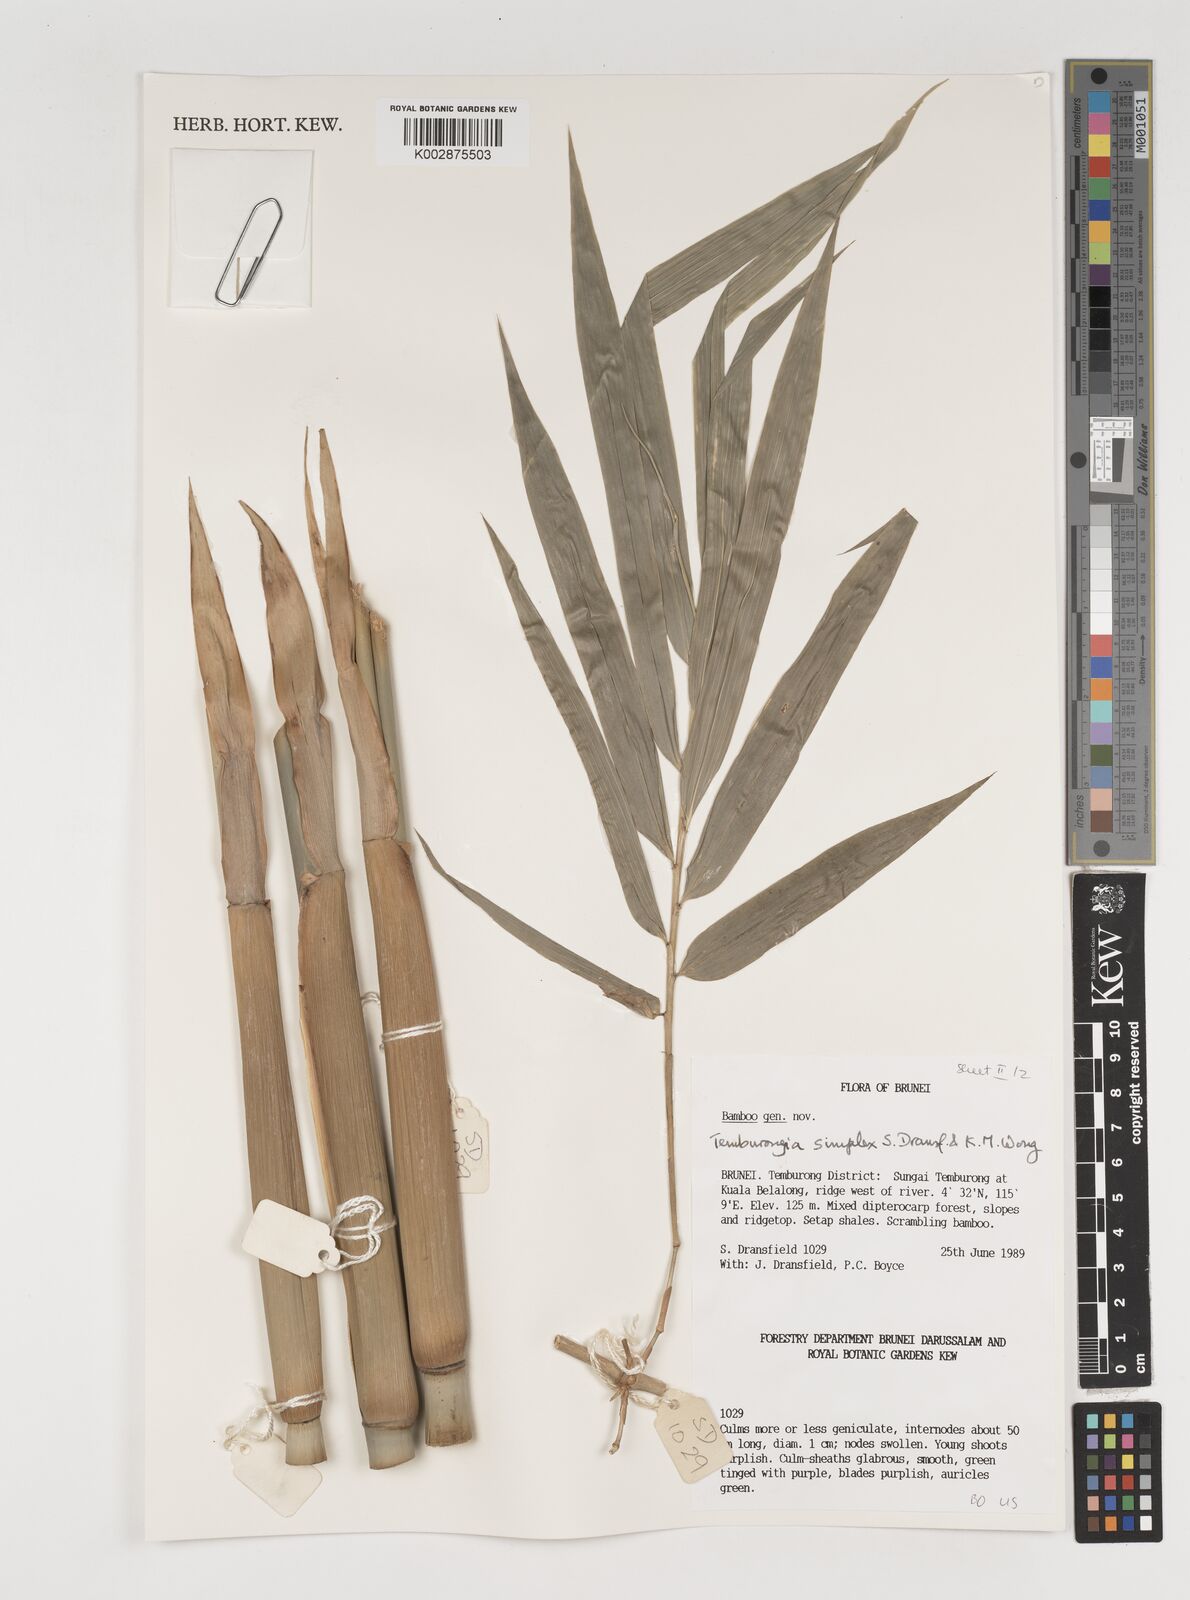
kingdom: Plantae
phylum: Tracheophyta
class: Liliopsida
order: Poales
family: Poaceae
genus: Temburongia
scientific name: Temburongia simplex
